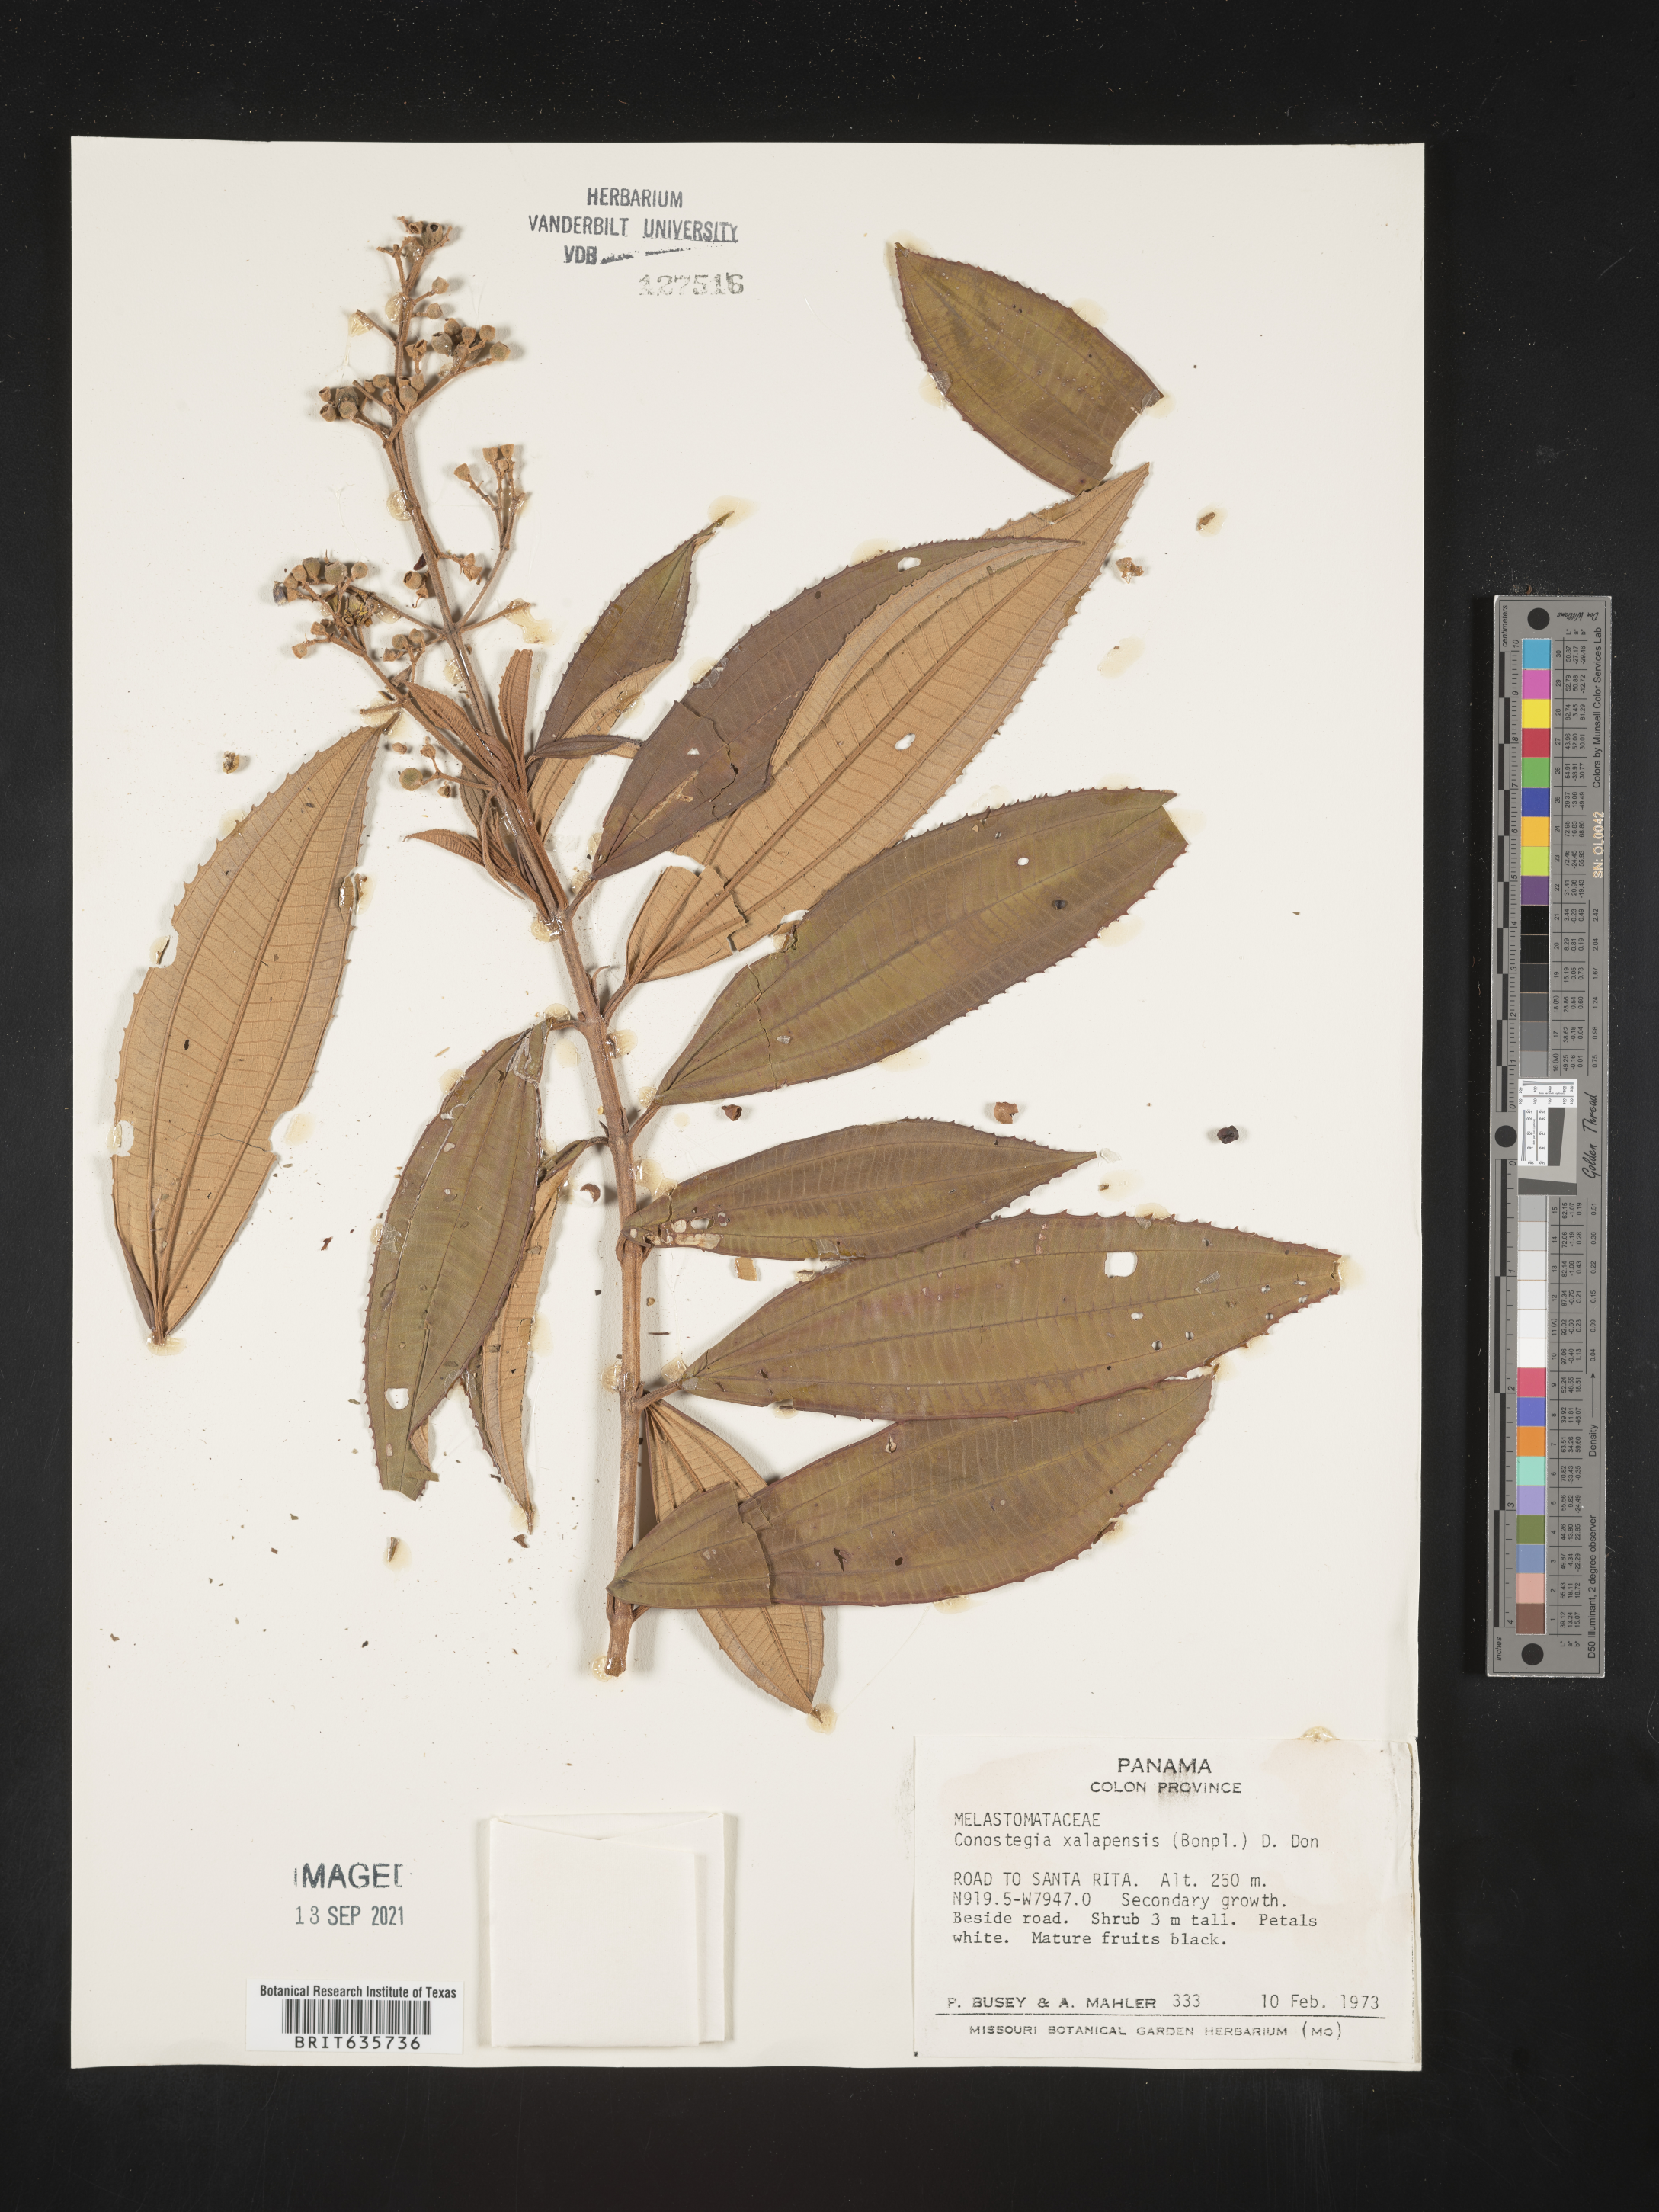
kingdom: Plantae
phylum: Tracheophyta
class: Magnoliopsida
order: Myrtales
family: Melastomataceae
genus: Miconia
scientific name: Miconia
